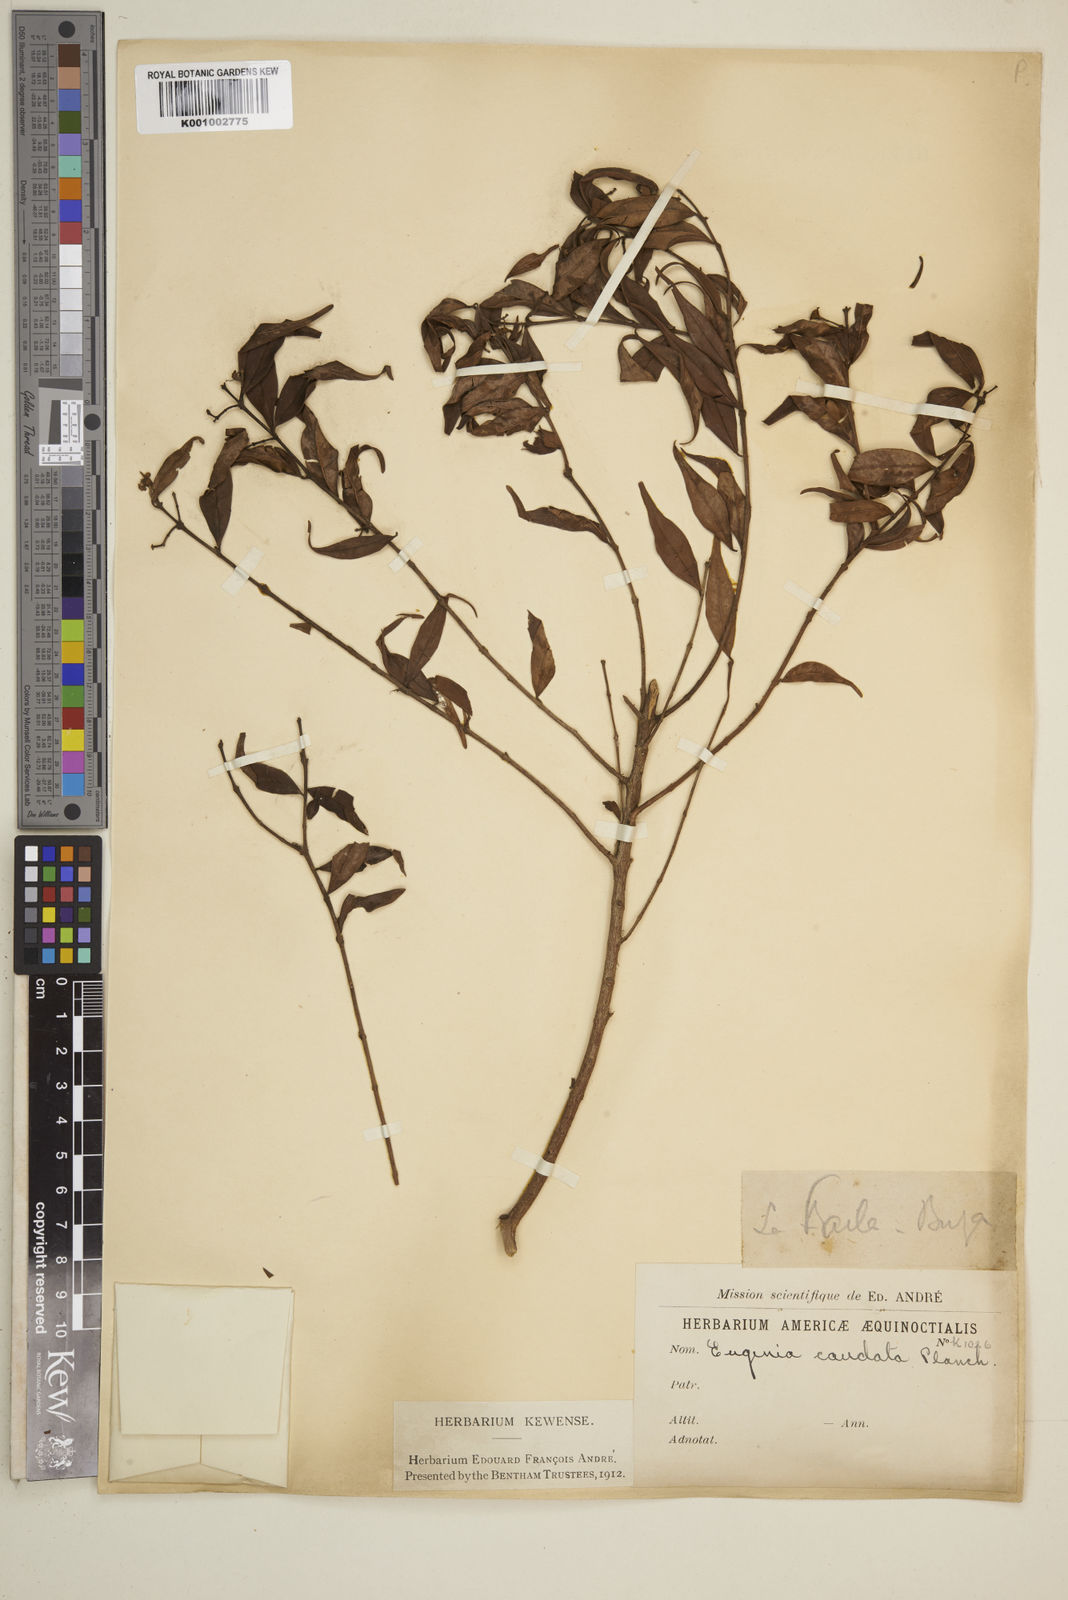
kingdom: Plantae
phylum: Tracheophyta
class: Magnoliopsida
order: Myrtales
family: Myrtaceae
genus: Syzygium
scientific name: Syzygium urophyllum
